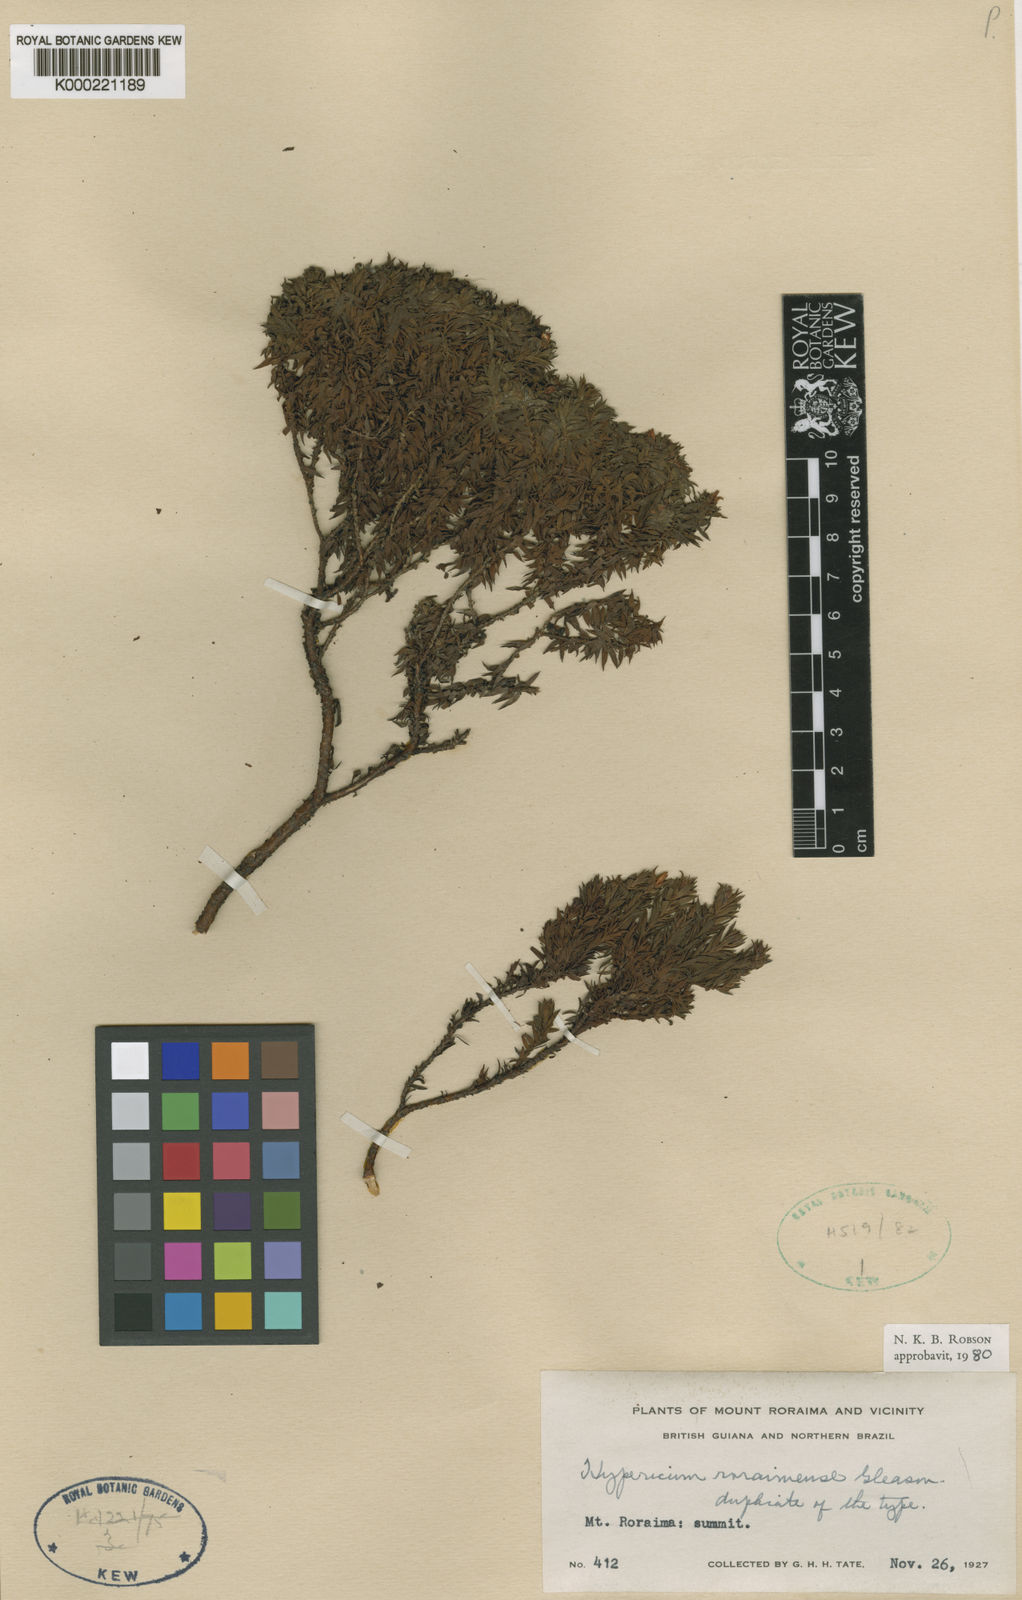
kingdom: Plantae
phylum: Tracheophyta
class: Magnoliopsida
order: Malpighiales
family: Hypericaceae
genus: Hypericum
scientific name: Hypericum roraimense
